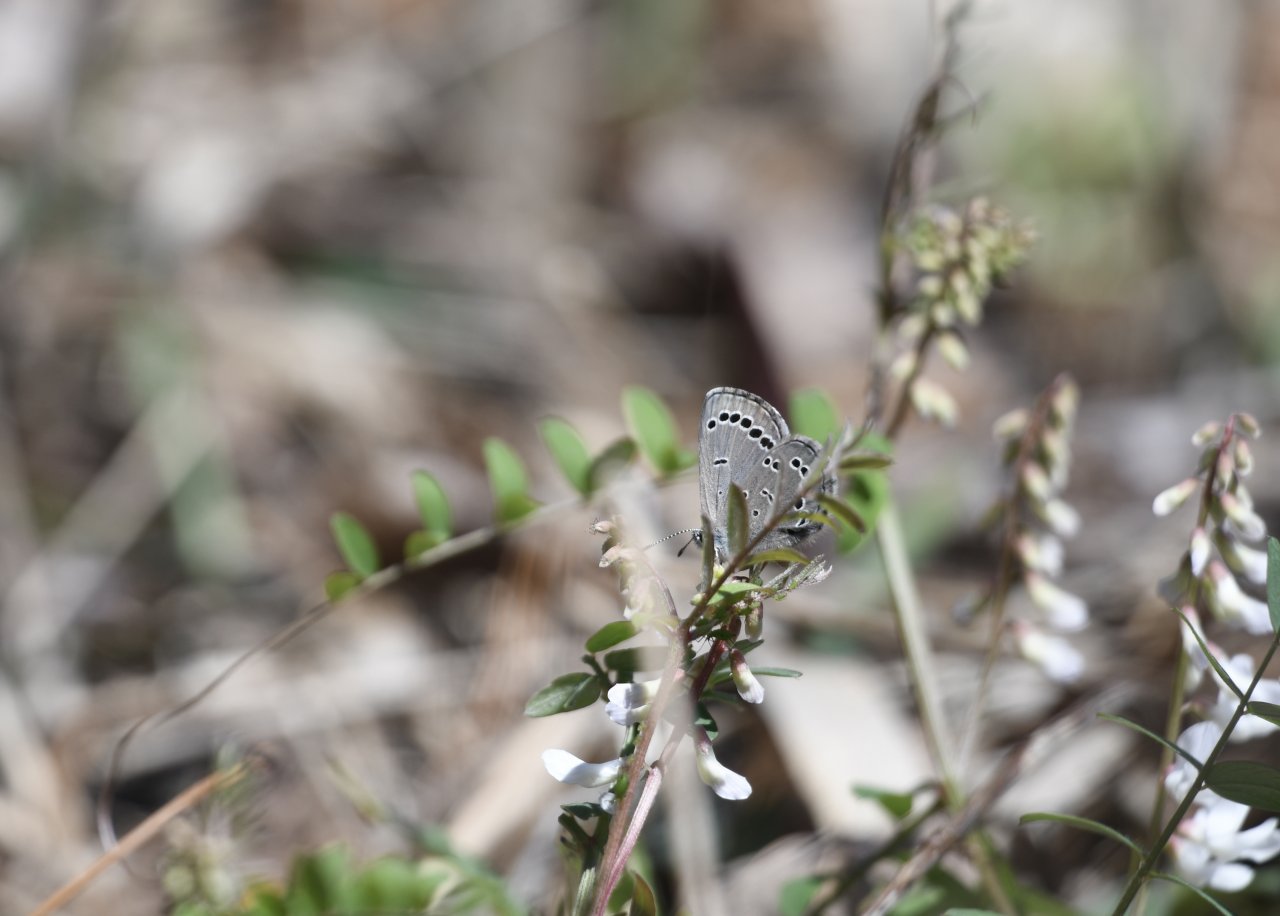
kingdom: Animalia
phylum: Arthropoda
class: Insecta
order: Lepidoptera
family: Lycaenidae
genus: Glaucopsyche
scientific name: Glaucopsyche lygdamus
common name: Silvery Blue
